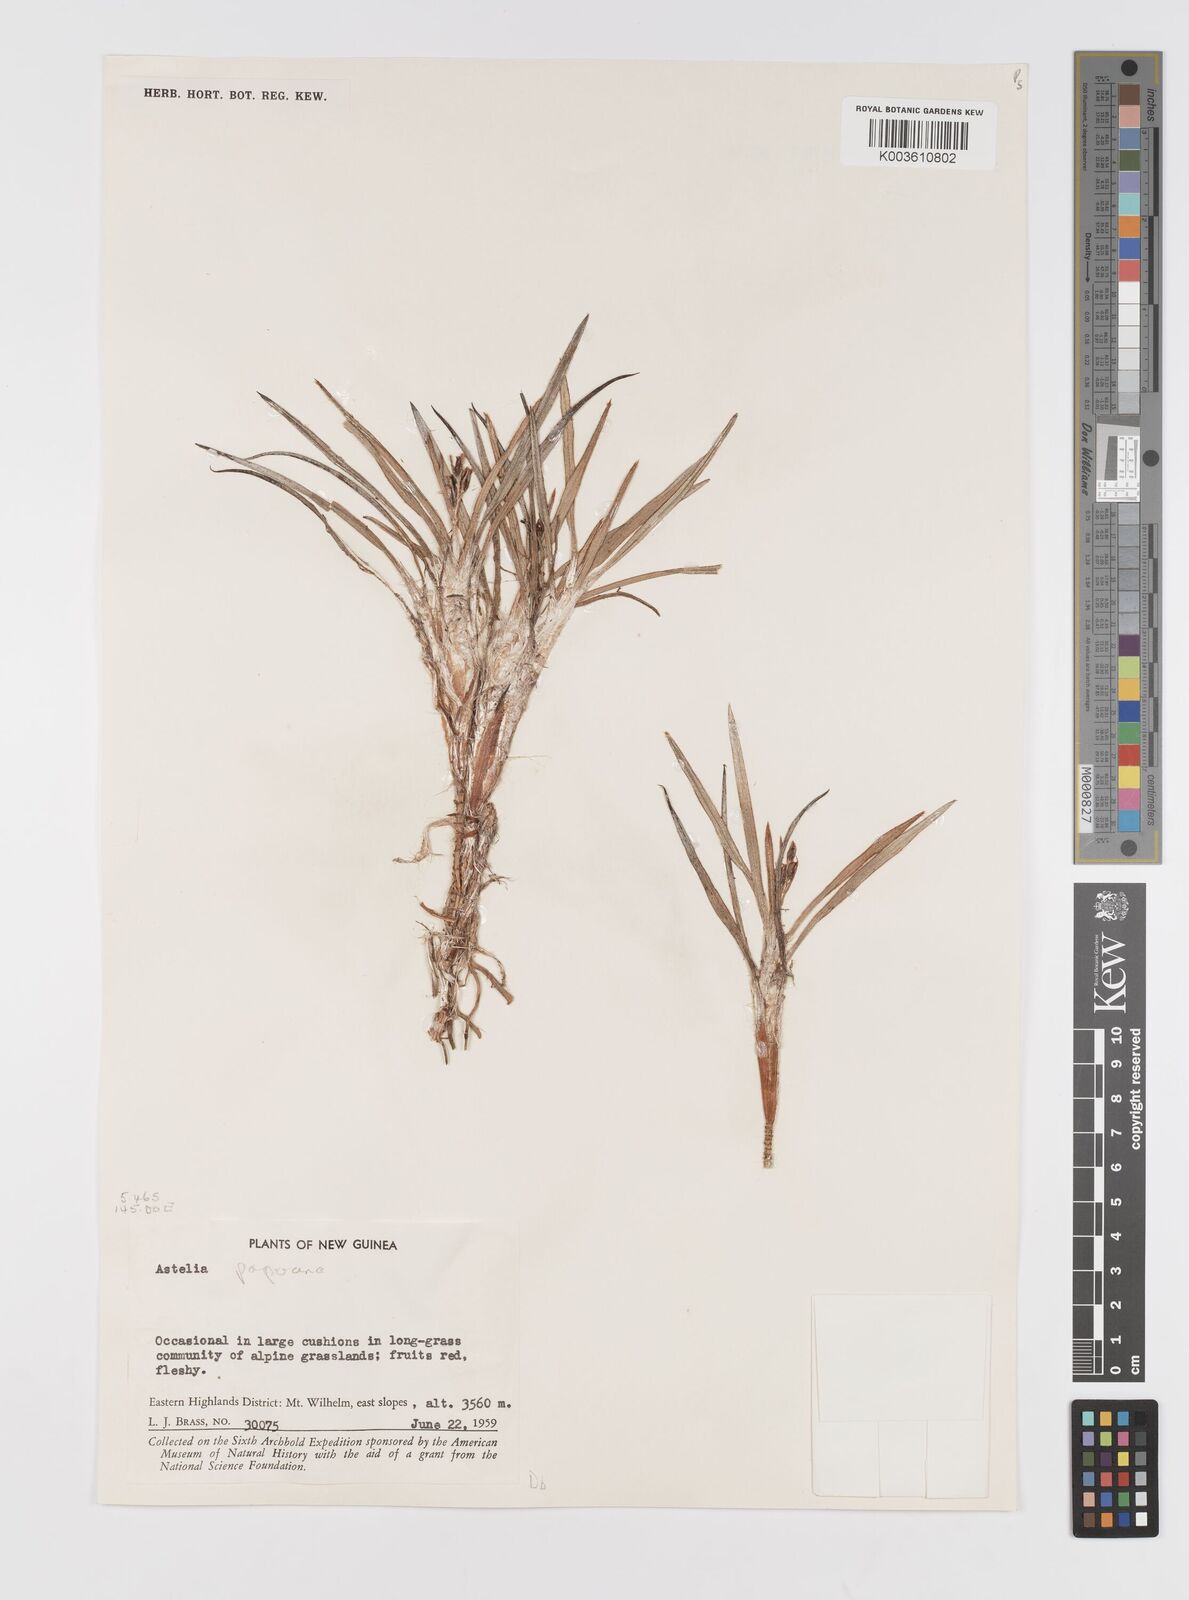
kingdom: Plantae
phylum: Tracheophyta
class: Liliopsida
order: Asparagales
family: Asteliaceae
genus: Astelia
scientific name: Astelia papuana
